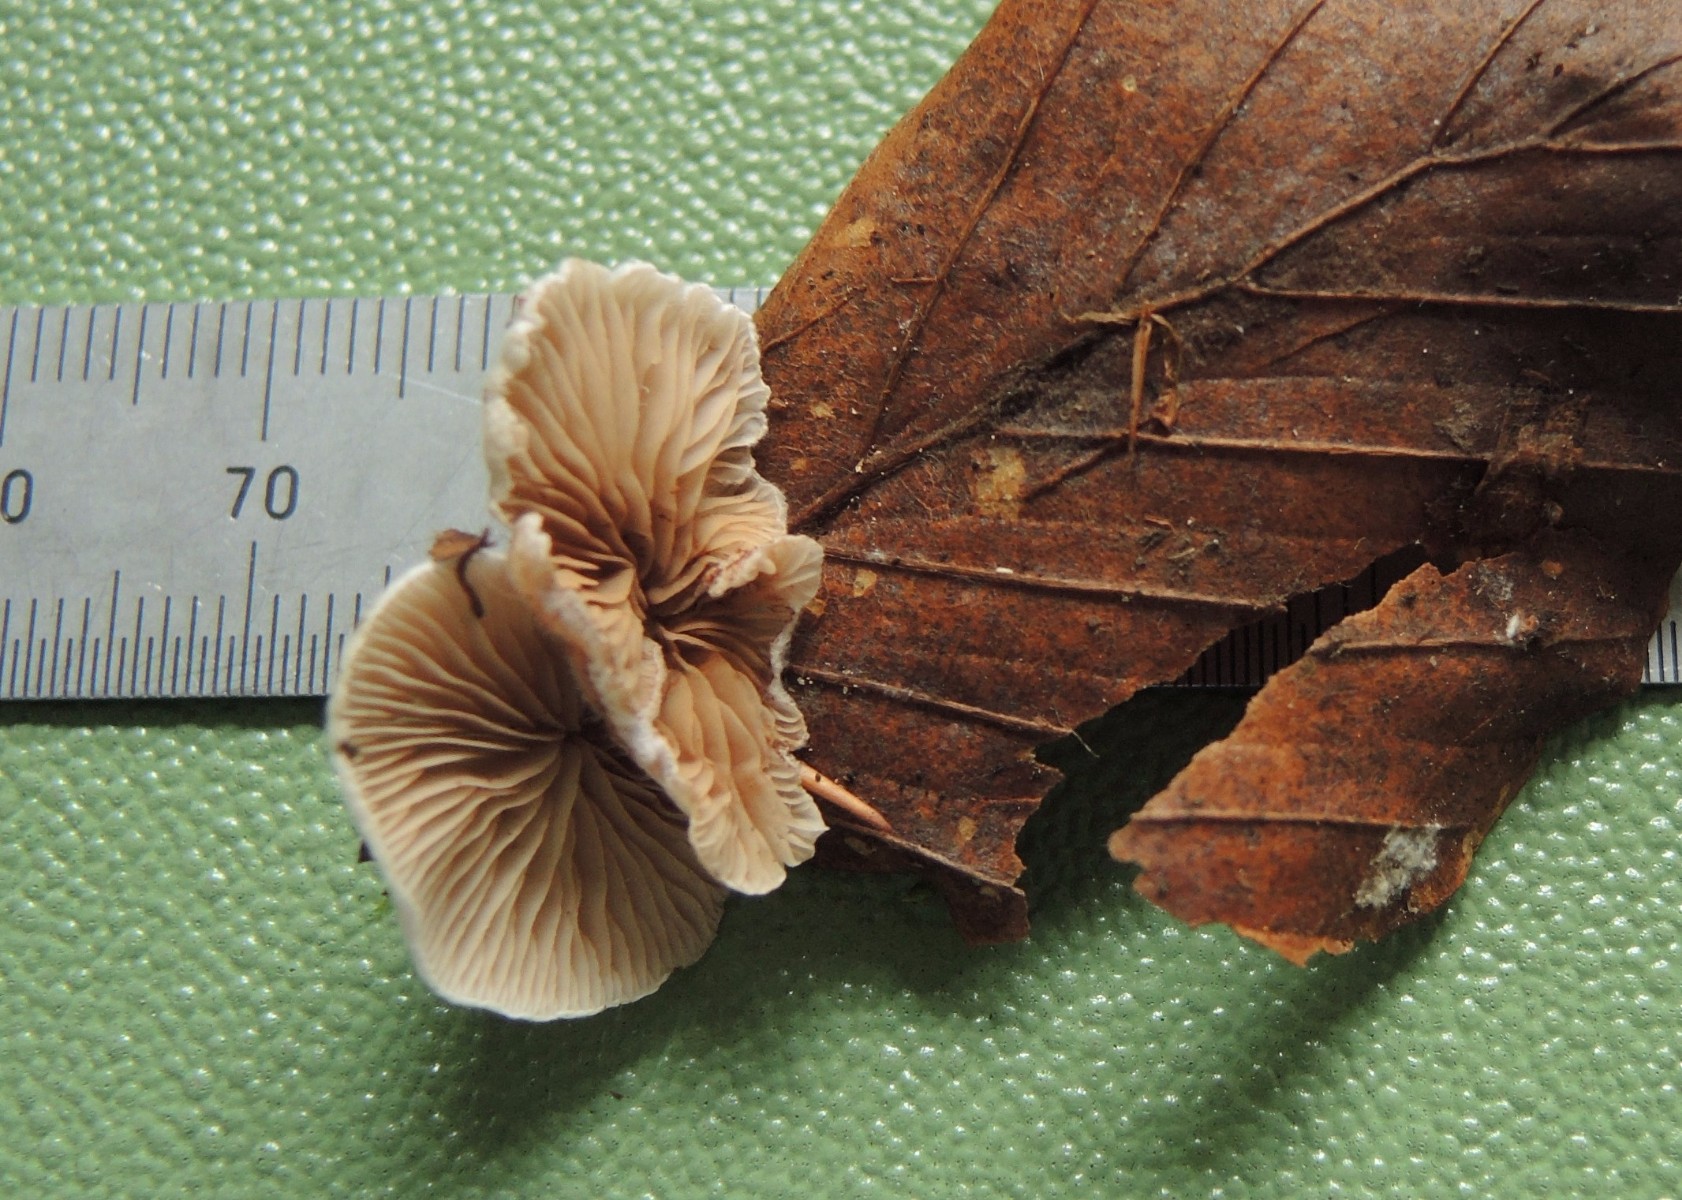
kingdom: Fungi
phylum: Basidiomycota
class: Agaricomycetes
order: Agaricales
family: Crepidotaceae
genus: Crepidotus
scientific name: Crepidotus variabilis
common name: forskelligformet muslingesvamp
